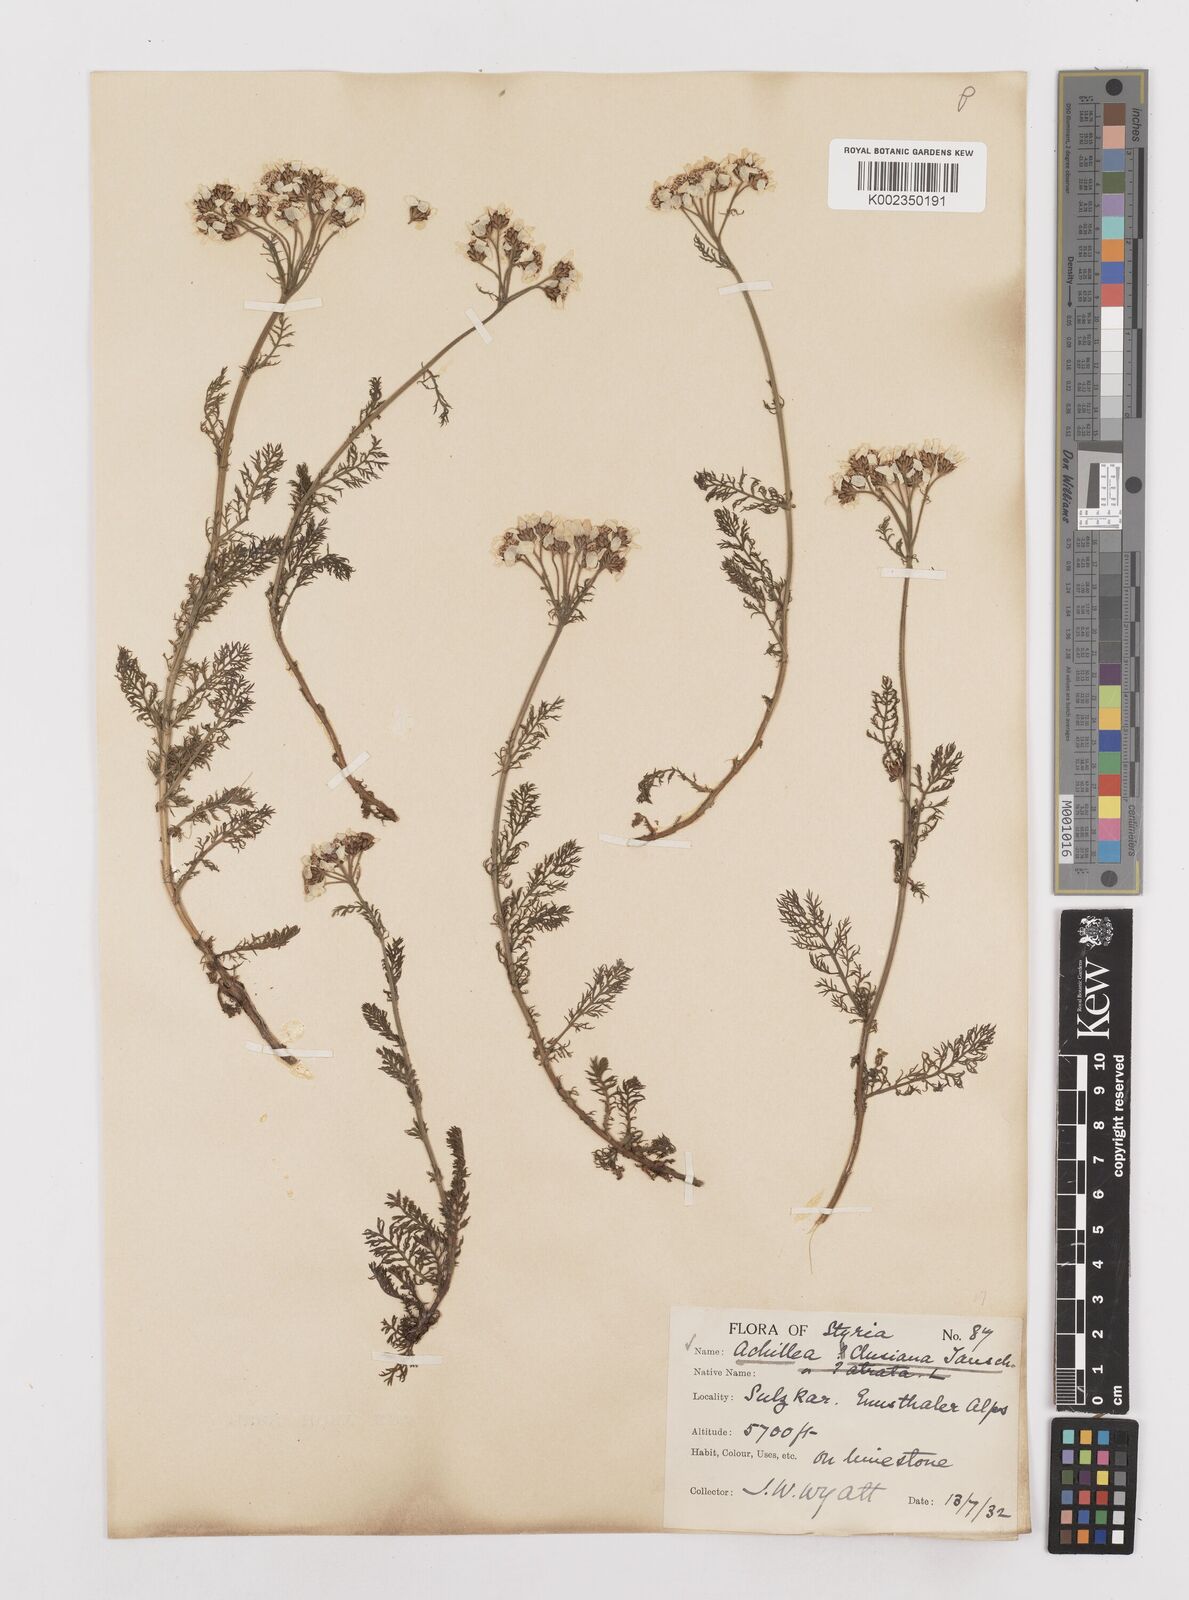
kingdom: Plantae
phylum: Tracheophyta
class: Magnoliopsida
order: Asterales
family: Asteraceae
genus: Achillea
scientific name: Achillea clusiana
